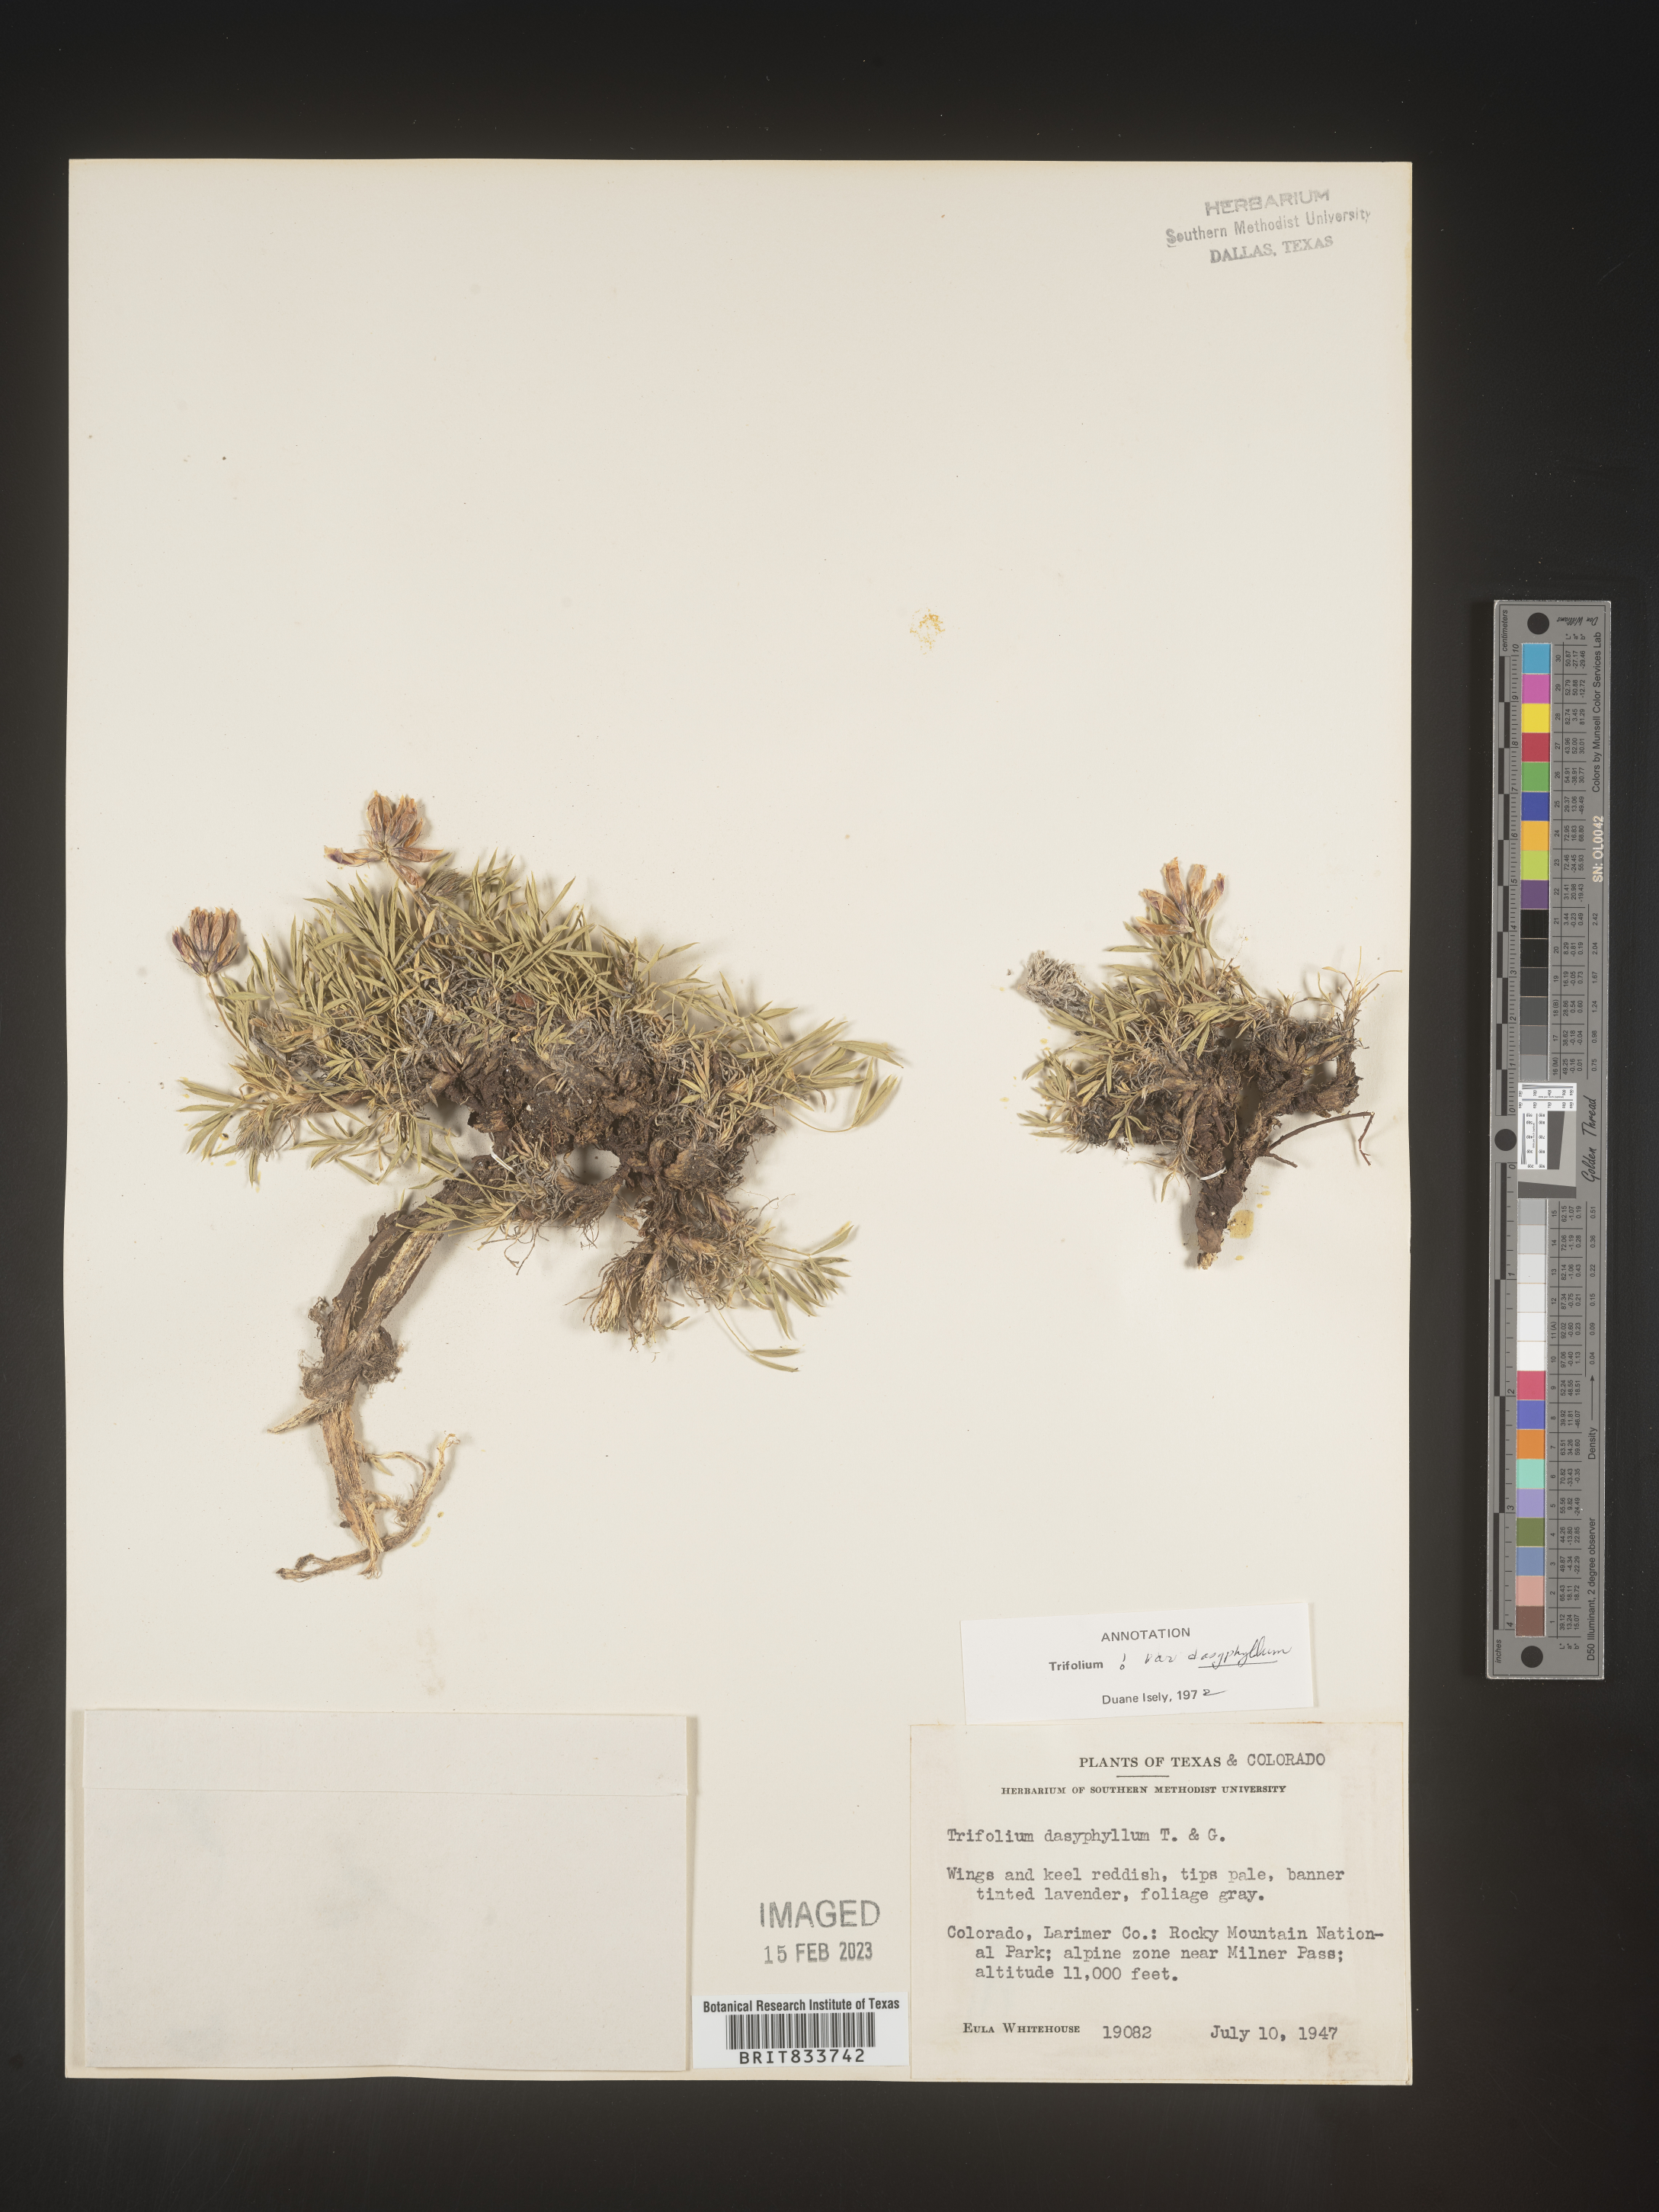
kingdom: Plantae
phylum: Tracheophyta
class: Magnoliopsida
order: Fabales
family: Fabaceae
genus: Trifolium
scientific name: Trifolium
